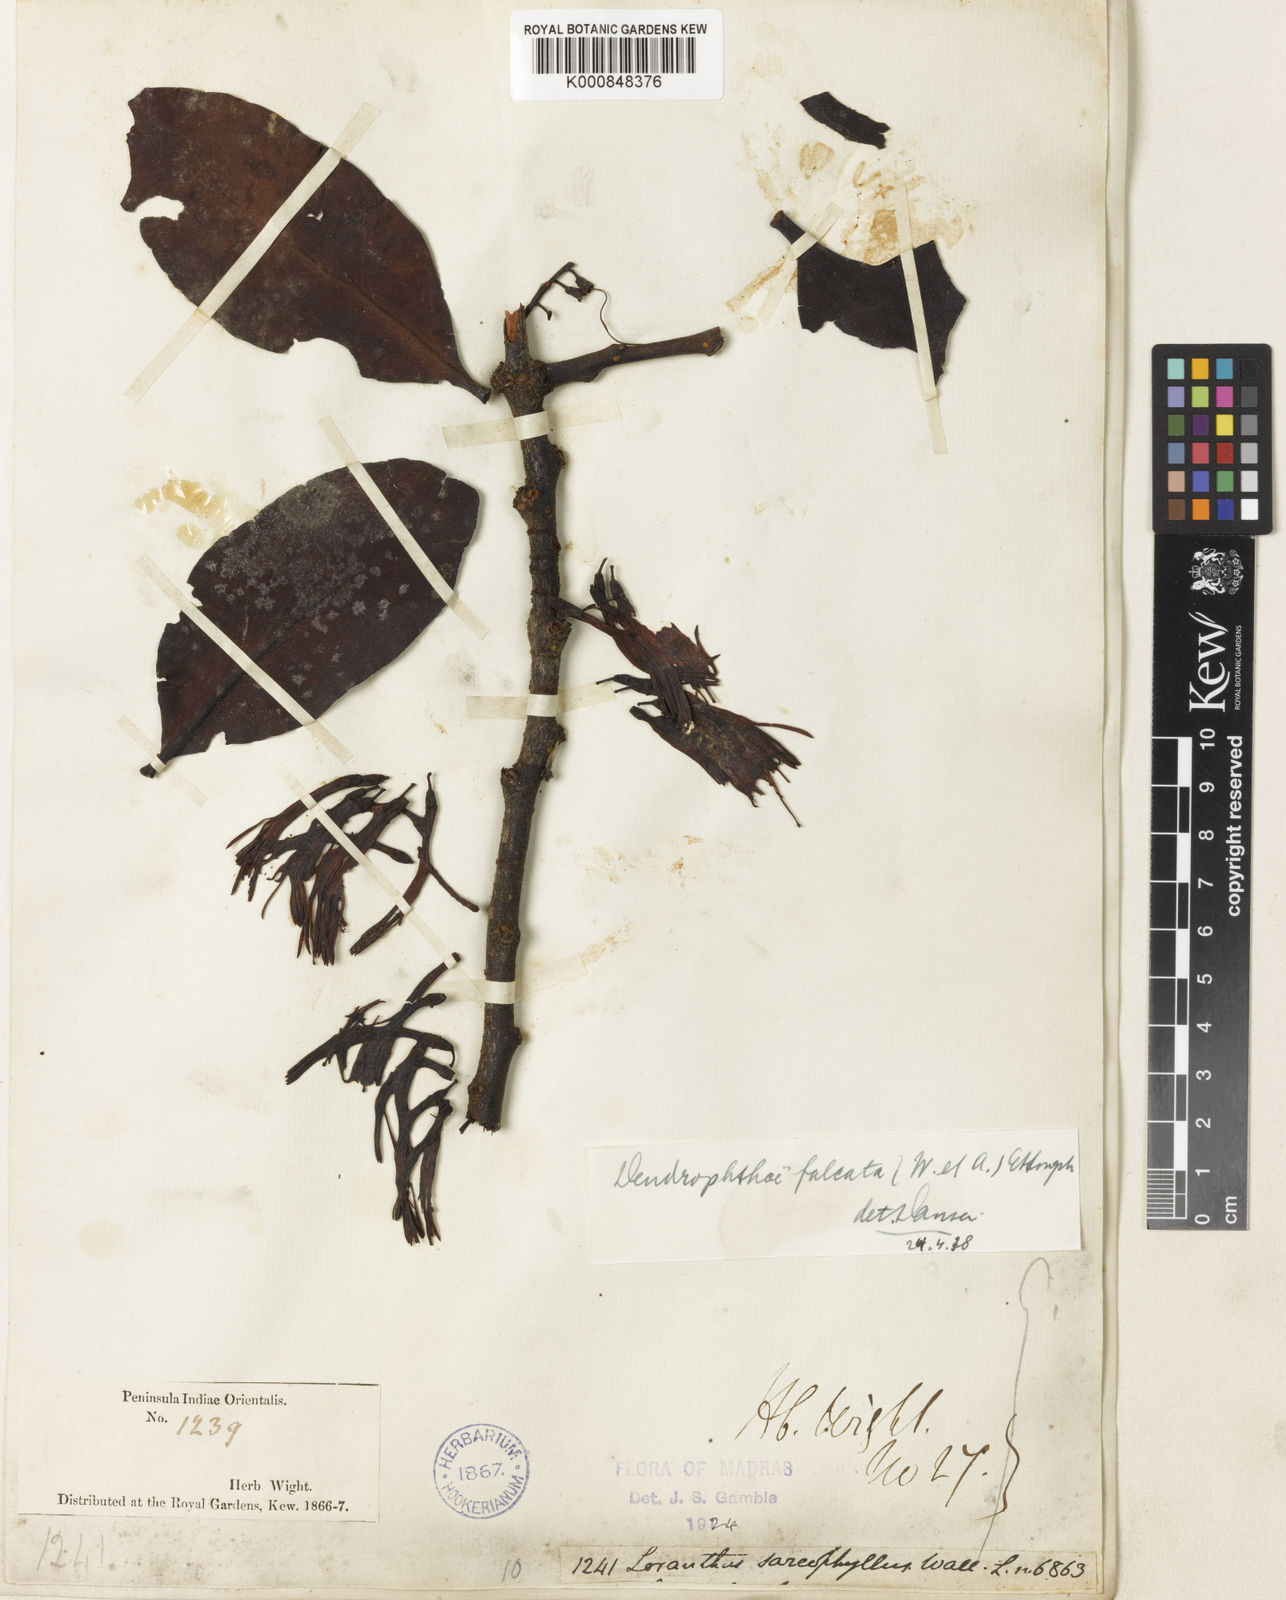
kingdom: Plantae
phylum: Tracheophyta
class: Magnoliopsida
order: Santalales
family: Loranthaceae
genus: Dendrophthoe
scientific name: Dendrophthoe falcata
